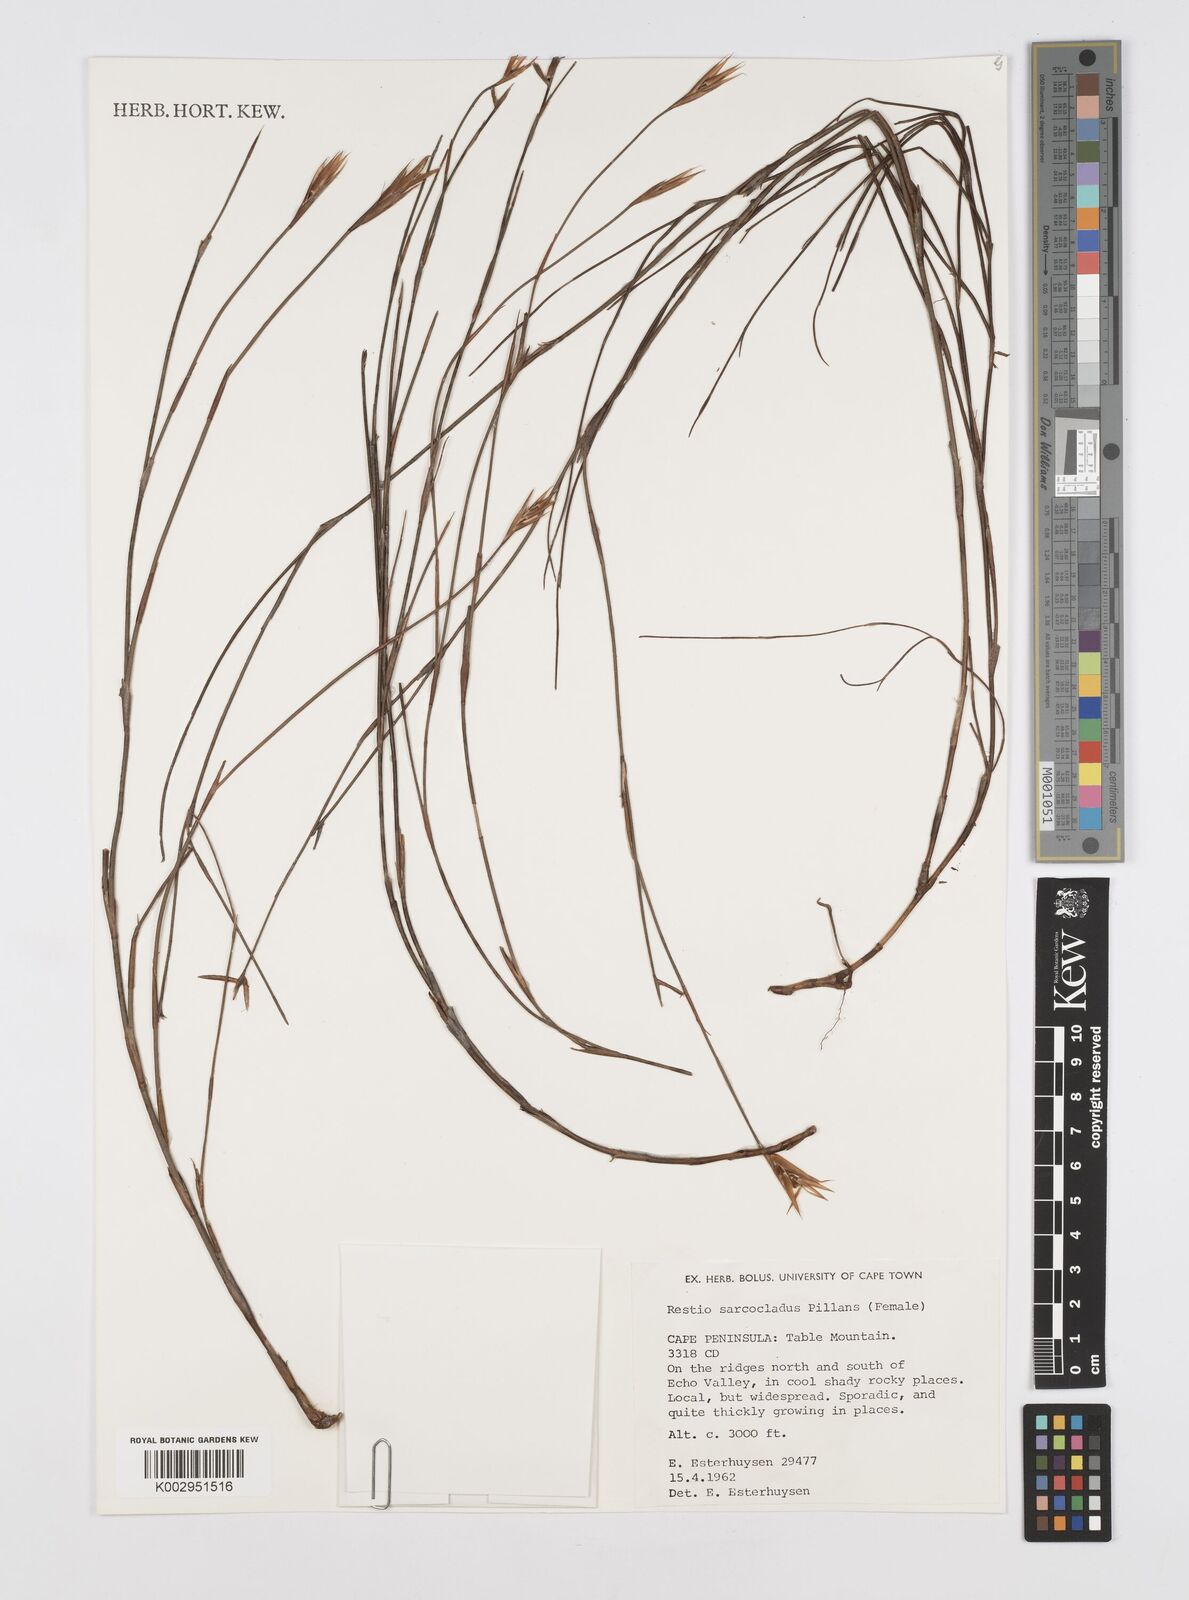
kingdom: Plantae
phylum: Tracheophyta
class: Liliopsida
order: Poales
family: Restionaceae
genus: Restio
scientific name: Restio saroclados
